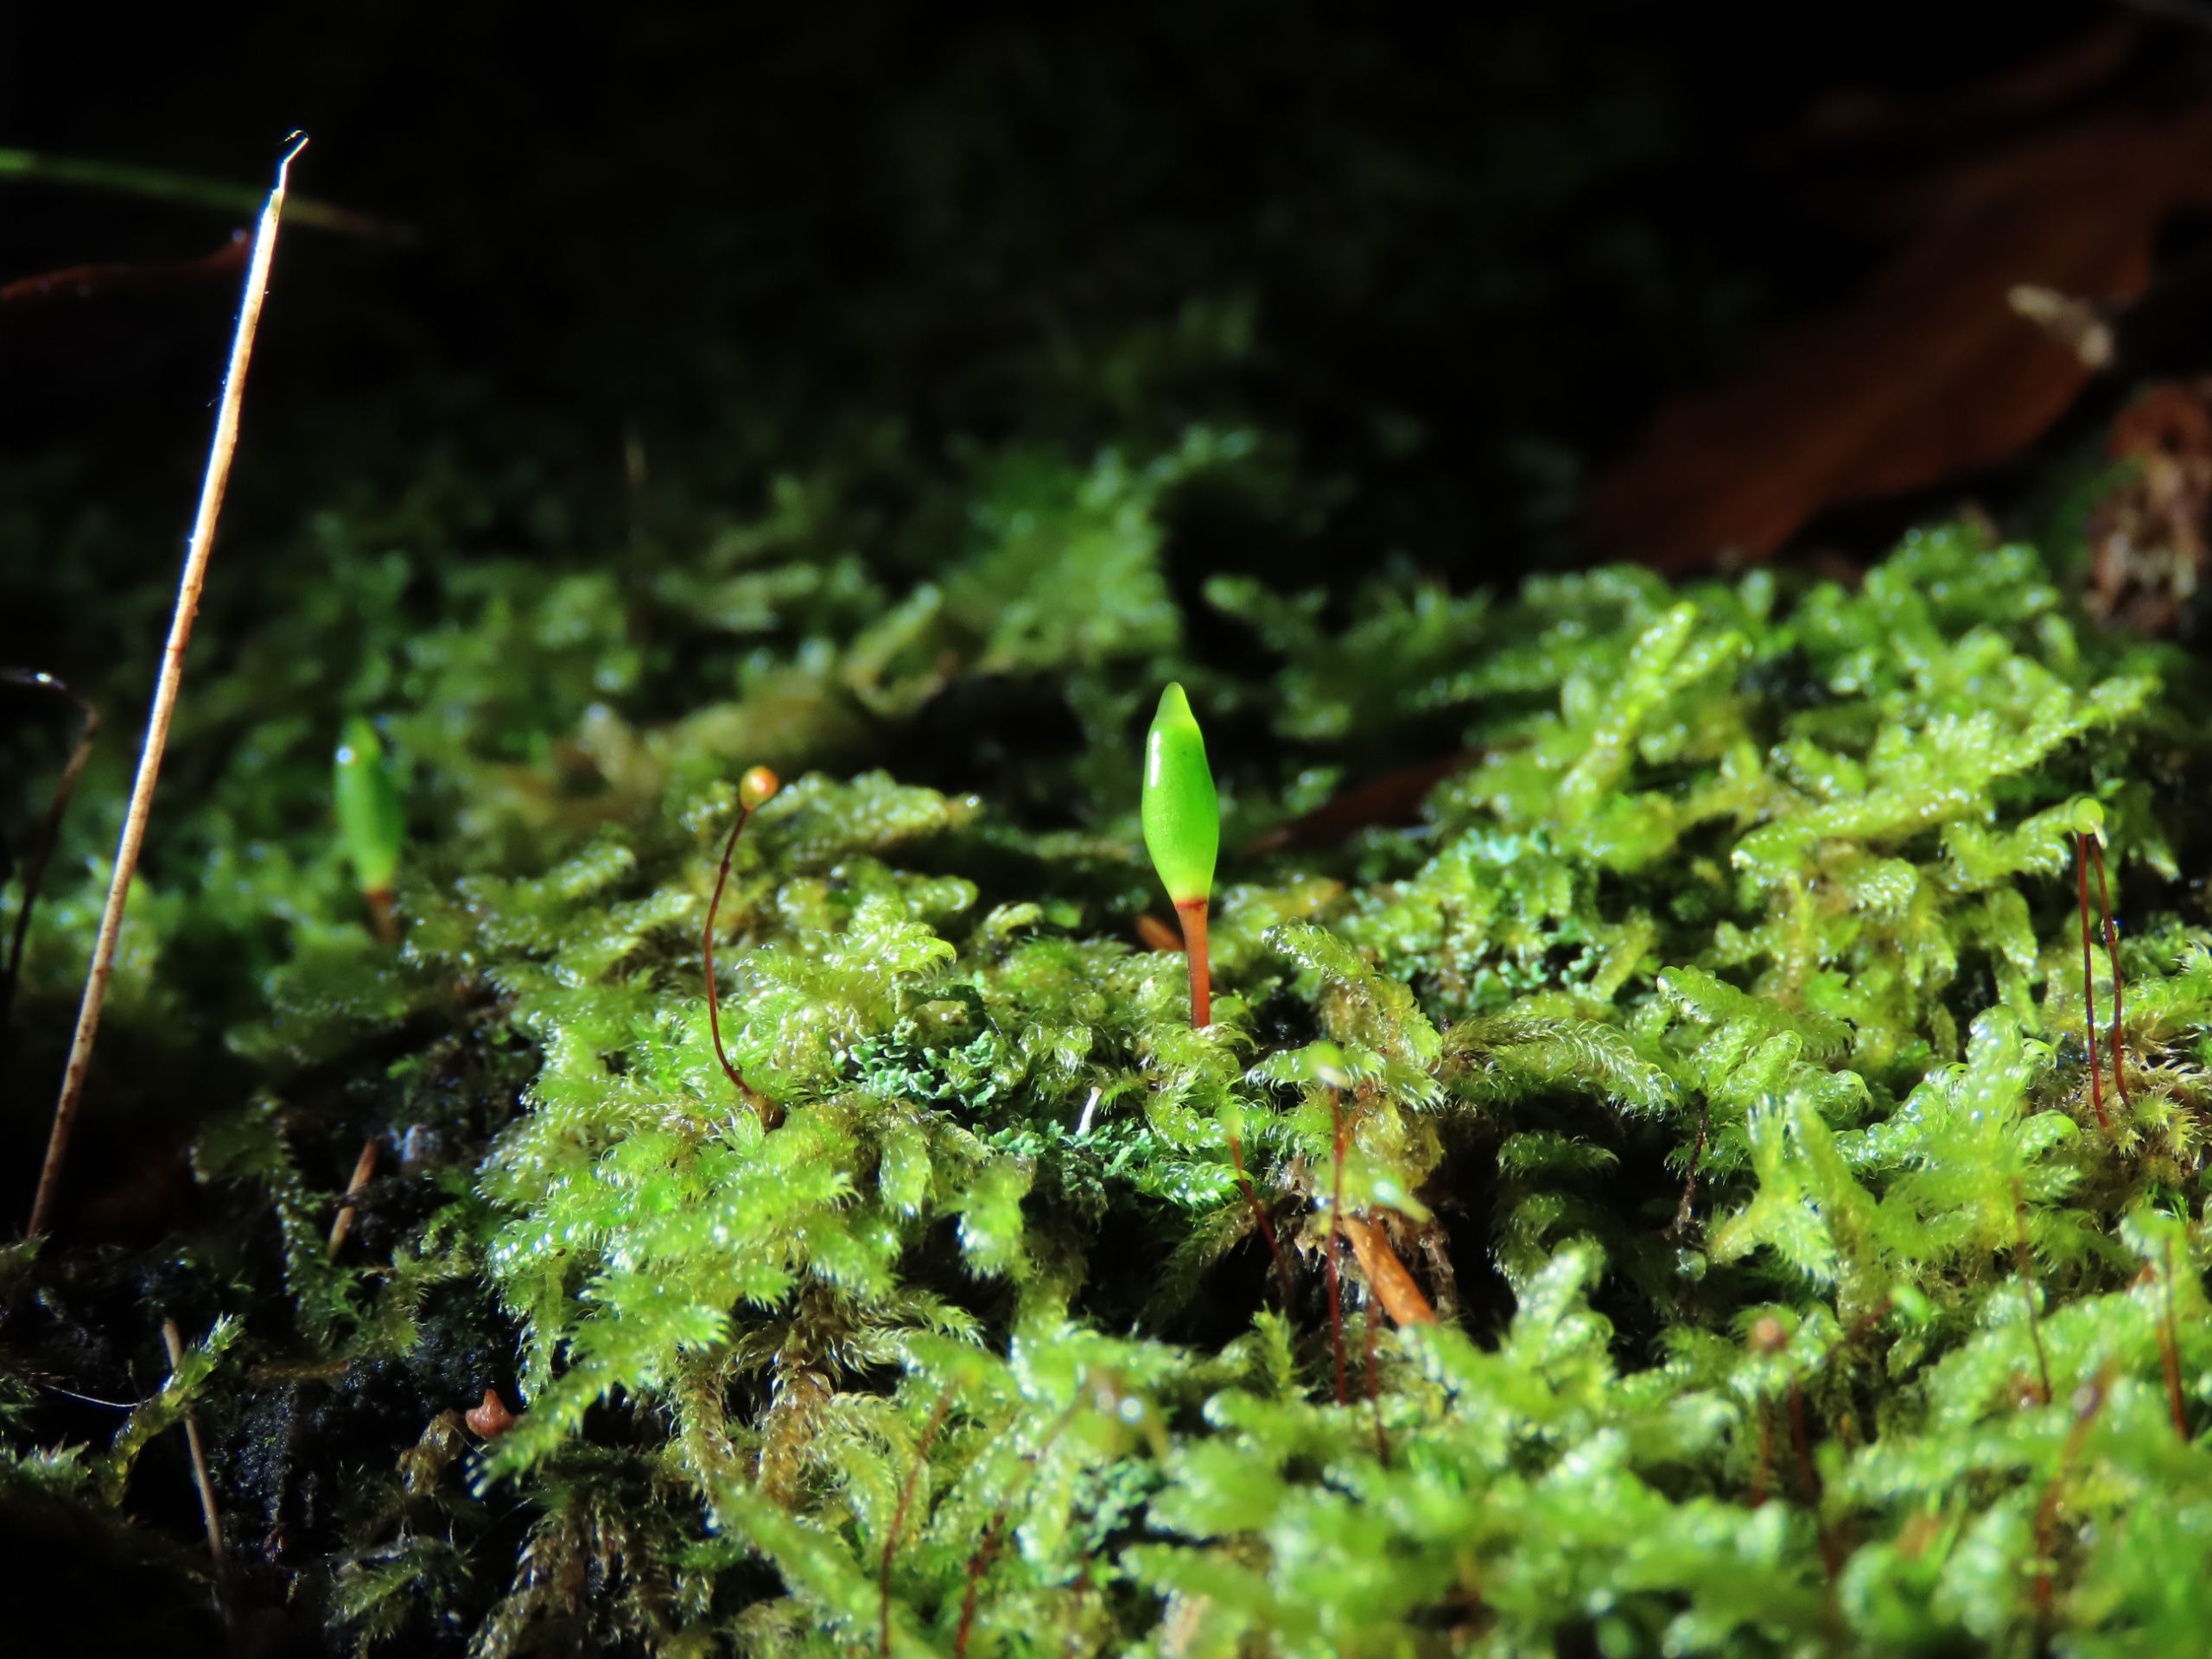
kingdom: Plantae
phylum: Bryophyta
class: Bryopsida
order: Buxbaumiales
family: Buxbaumiaceae
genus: Buxbaumia
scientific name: Buxbaumia viridis
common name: Grøn buxbaumia
